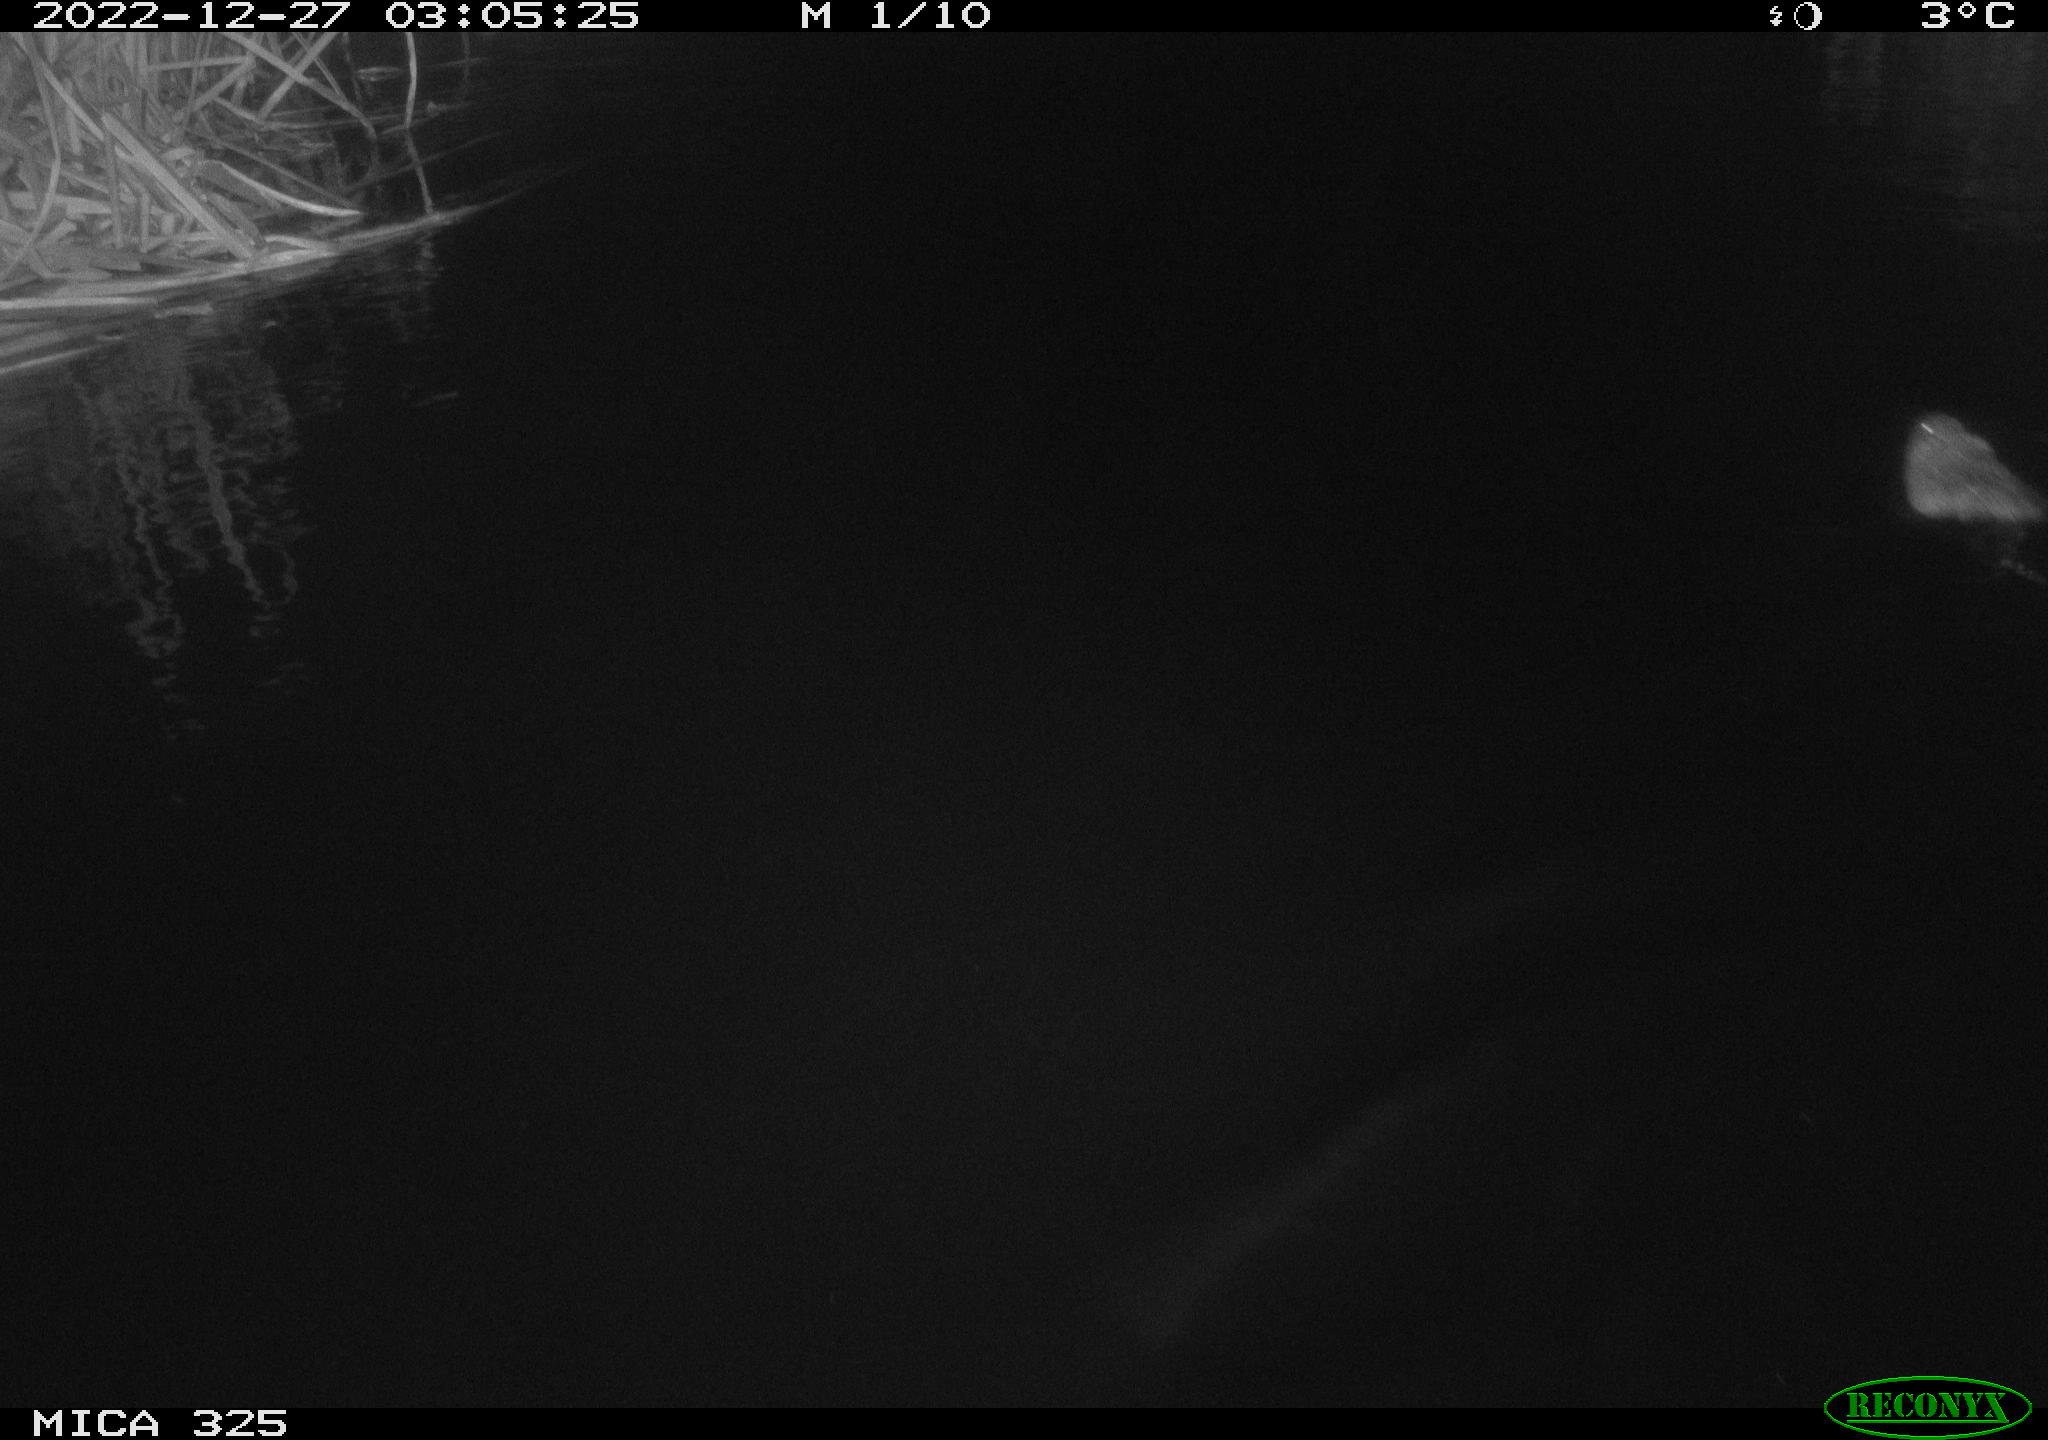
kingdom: Animalia
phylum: Chordata
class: Mammalia
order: Rodentia
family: Cricetidae
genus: Ondatra
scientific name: Ondatra zibethicus
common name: Muskrat
